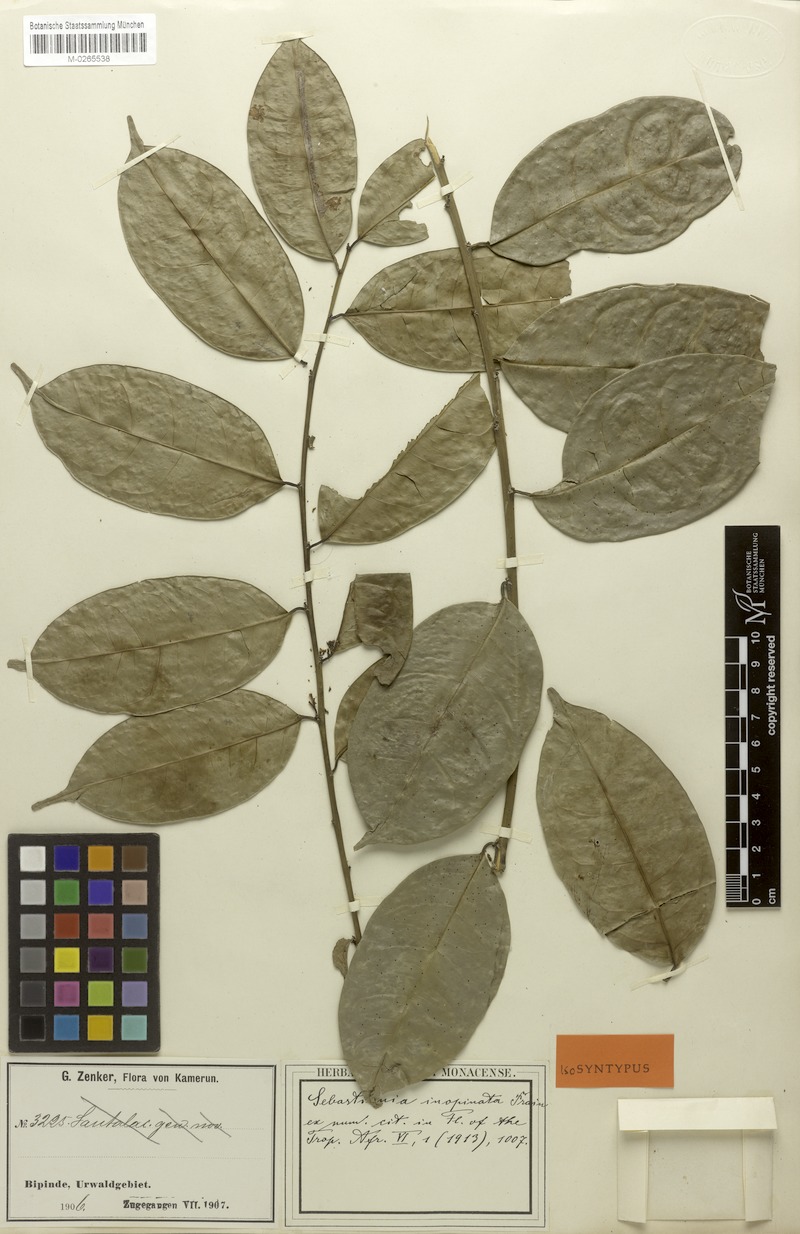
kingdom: Plantae
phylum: Tracheophyta
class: Magnoliopsida
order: Malpighiales
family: Euphorbiaceae
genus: Gymnanthes
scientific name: Gymnanthes inopinata
